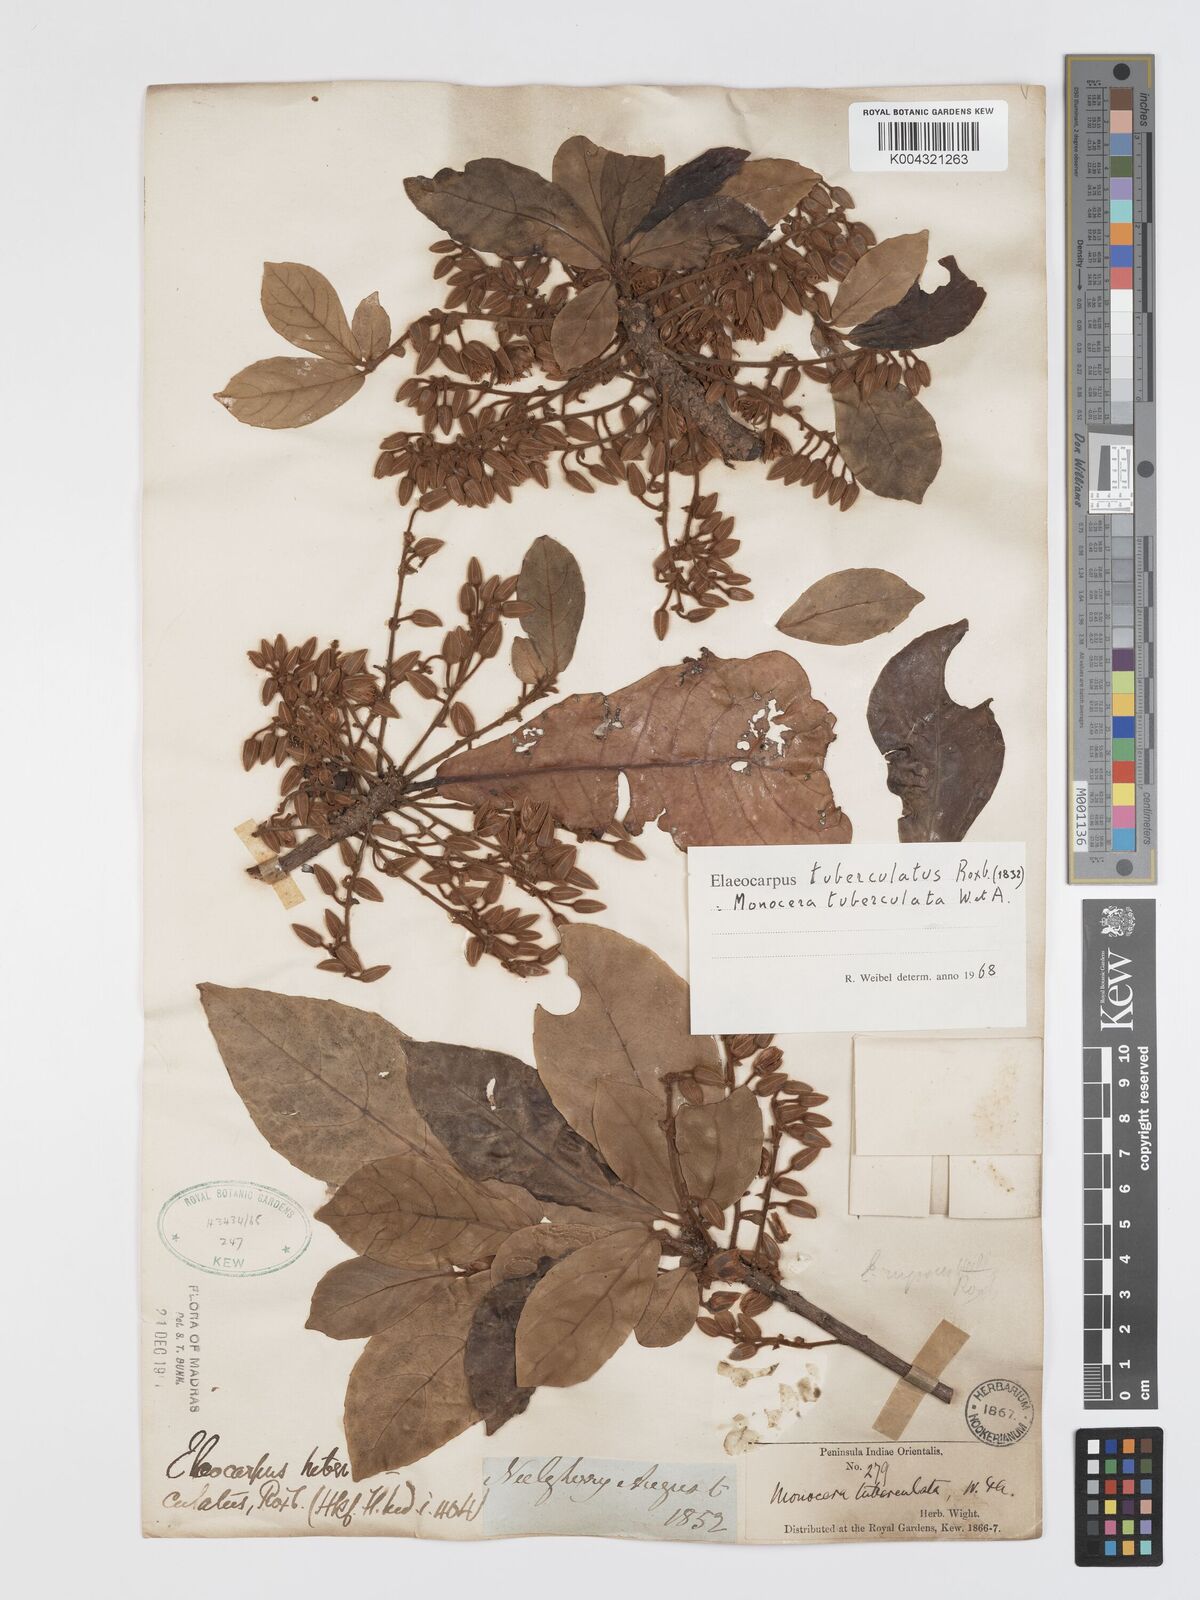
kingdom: Plantae
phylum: Tracheophyta
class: Magnoliopsida
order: Oxalidales
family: Elaeocarpaceae
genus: Elaeocarpus
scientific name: Elaeocarpus tuberculatus
